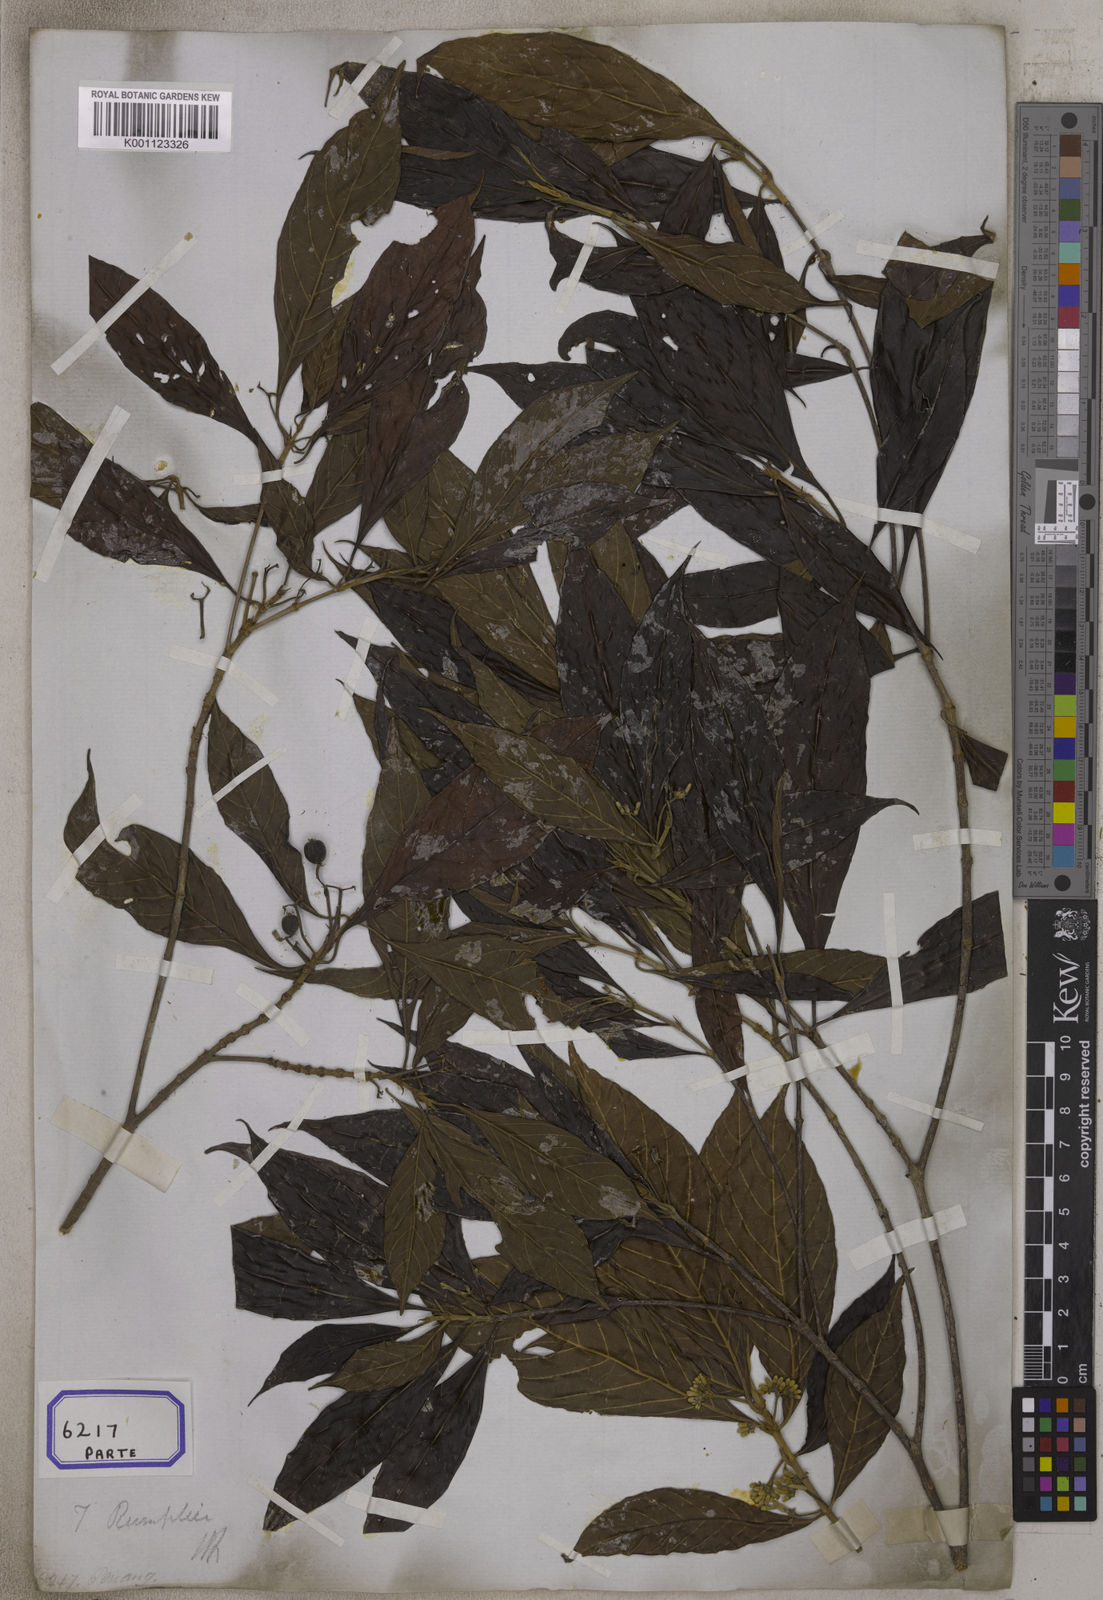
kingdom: Plantae
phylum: Tracheophyta
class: Magnoliopsida
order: Gentianales
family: Rubiaceae
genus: Timonius
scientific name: Timonius timon
